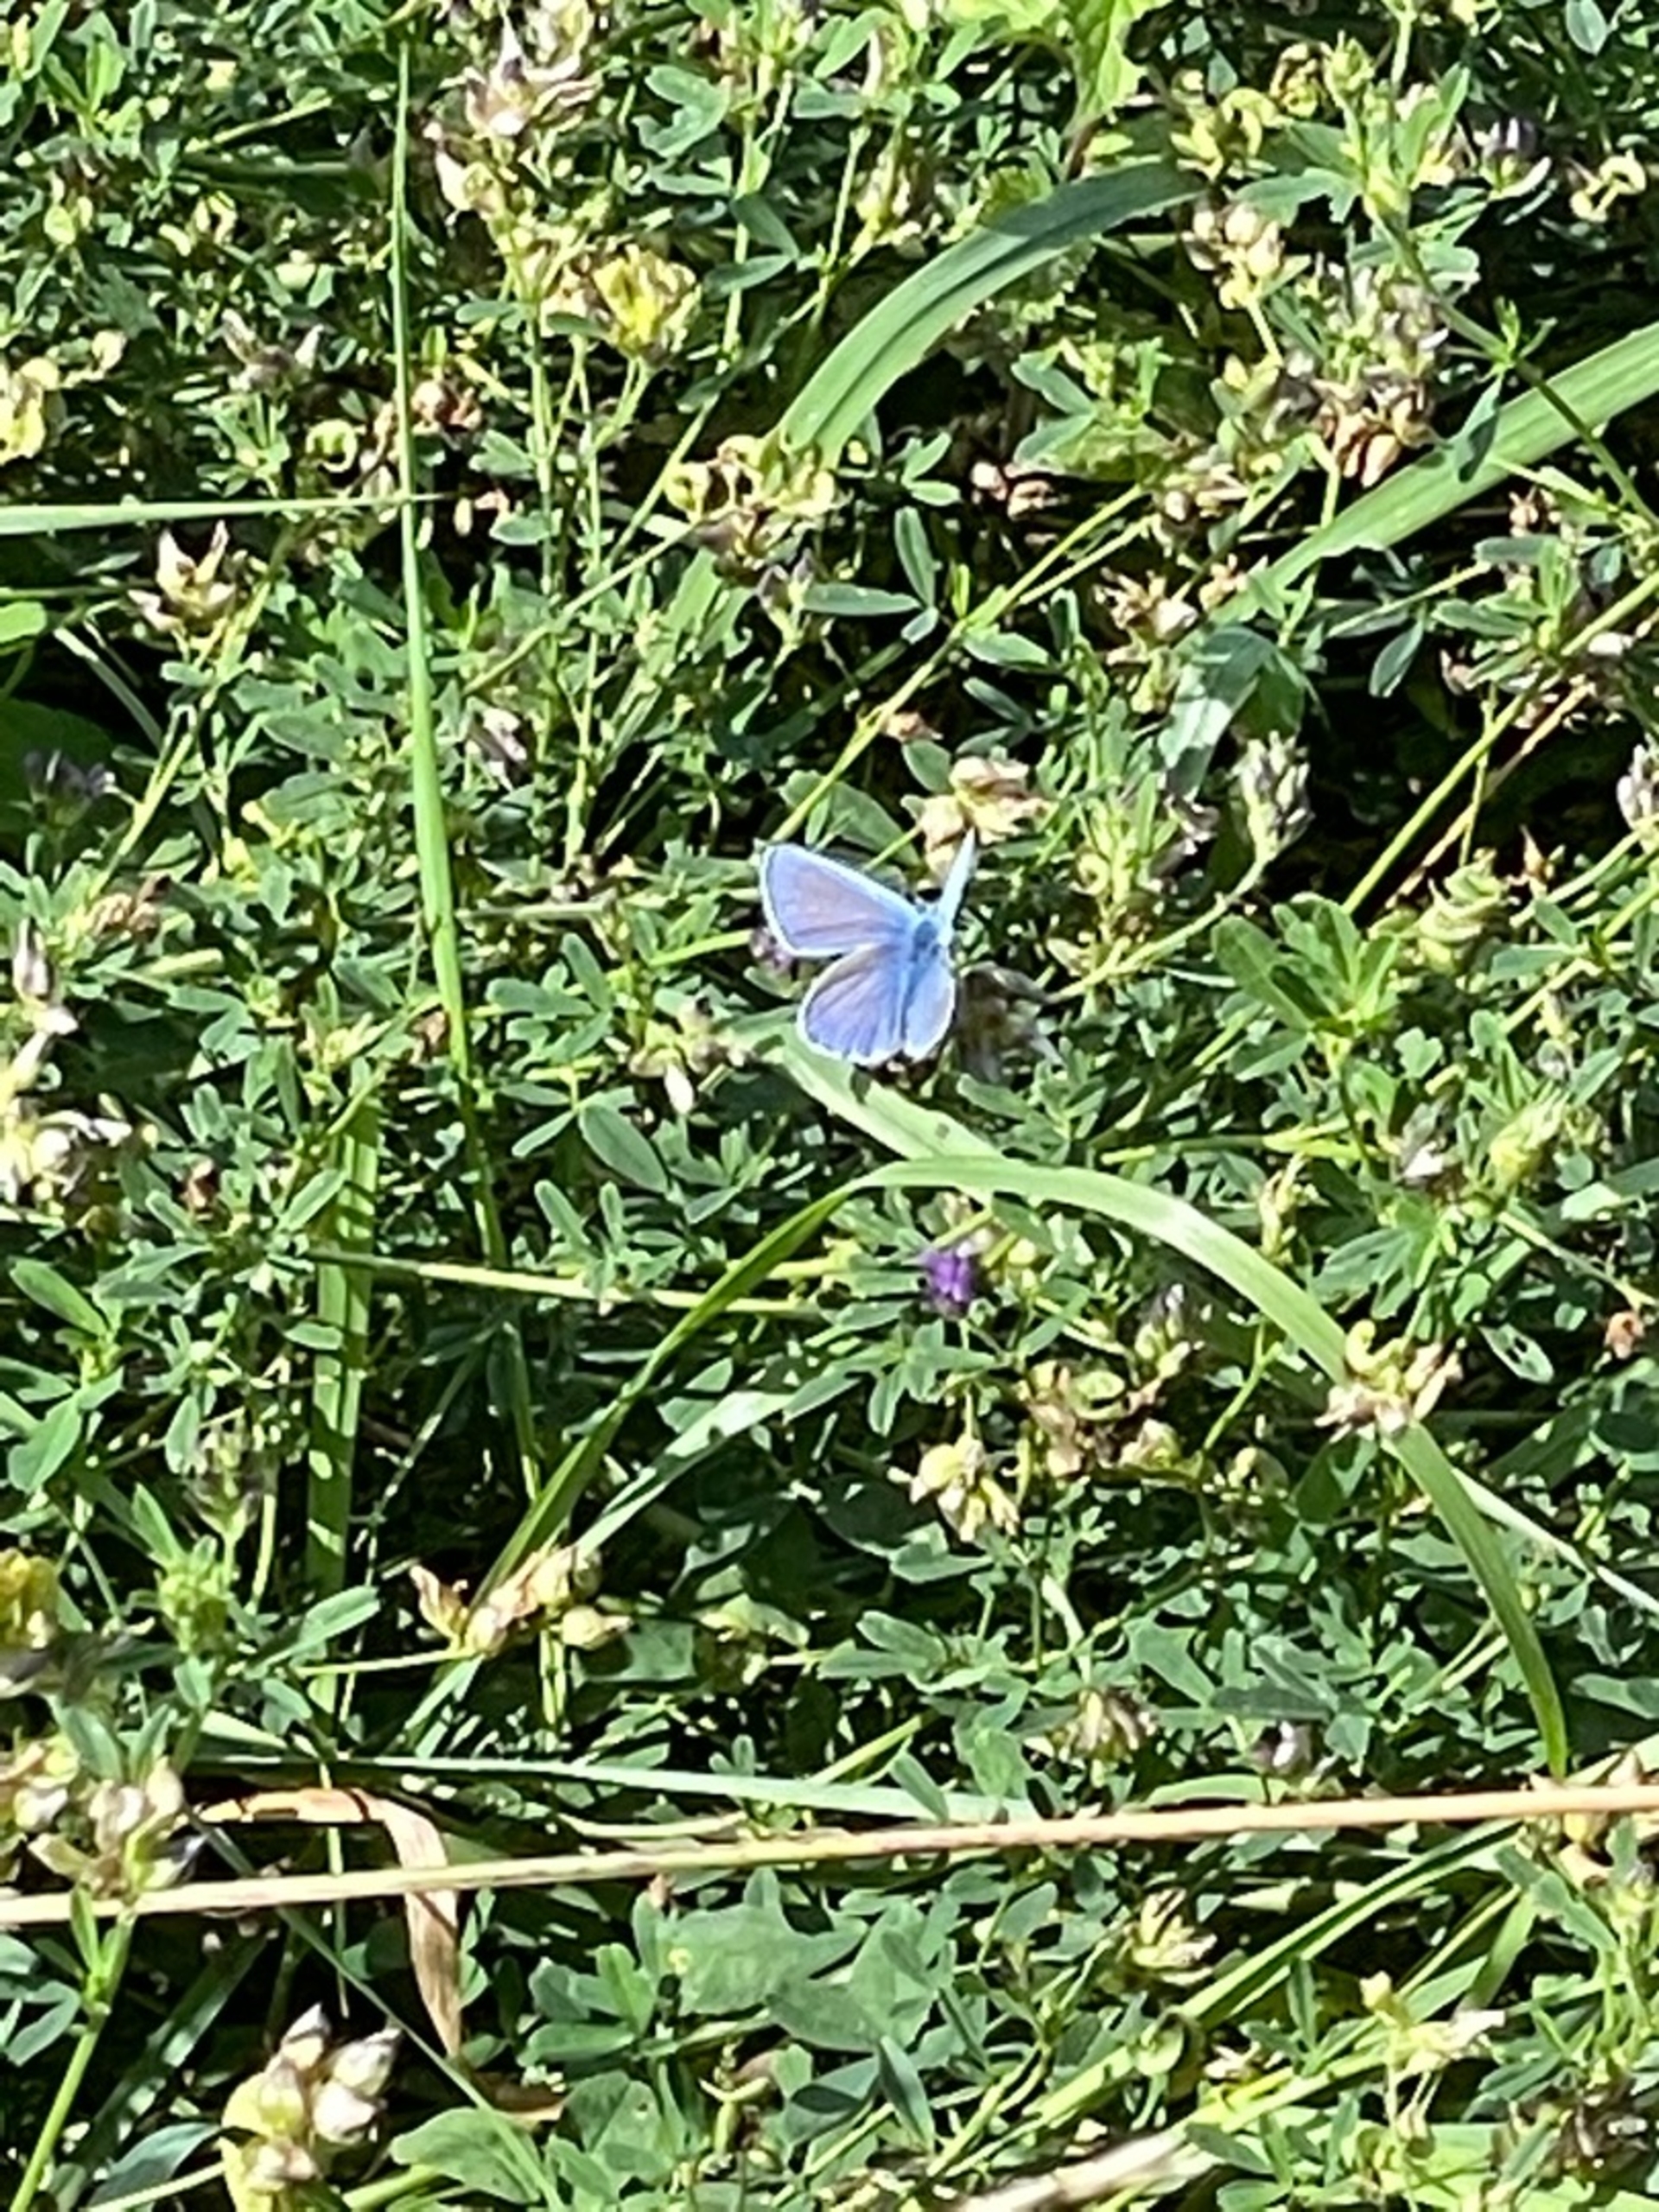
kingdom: Animalia
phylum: Arthropoda
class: Insecta
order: Lepidoptera
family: Lycaenidae
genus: Polyommatus
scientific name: Polyommatus icarus
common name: Almindelig blåfugl
